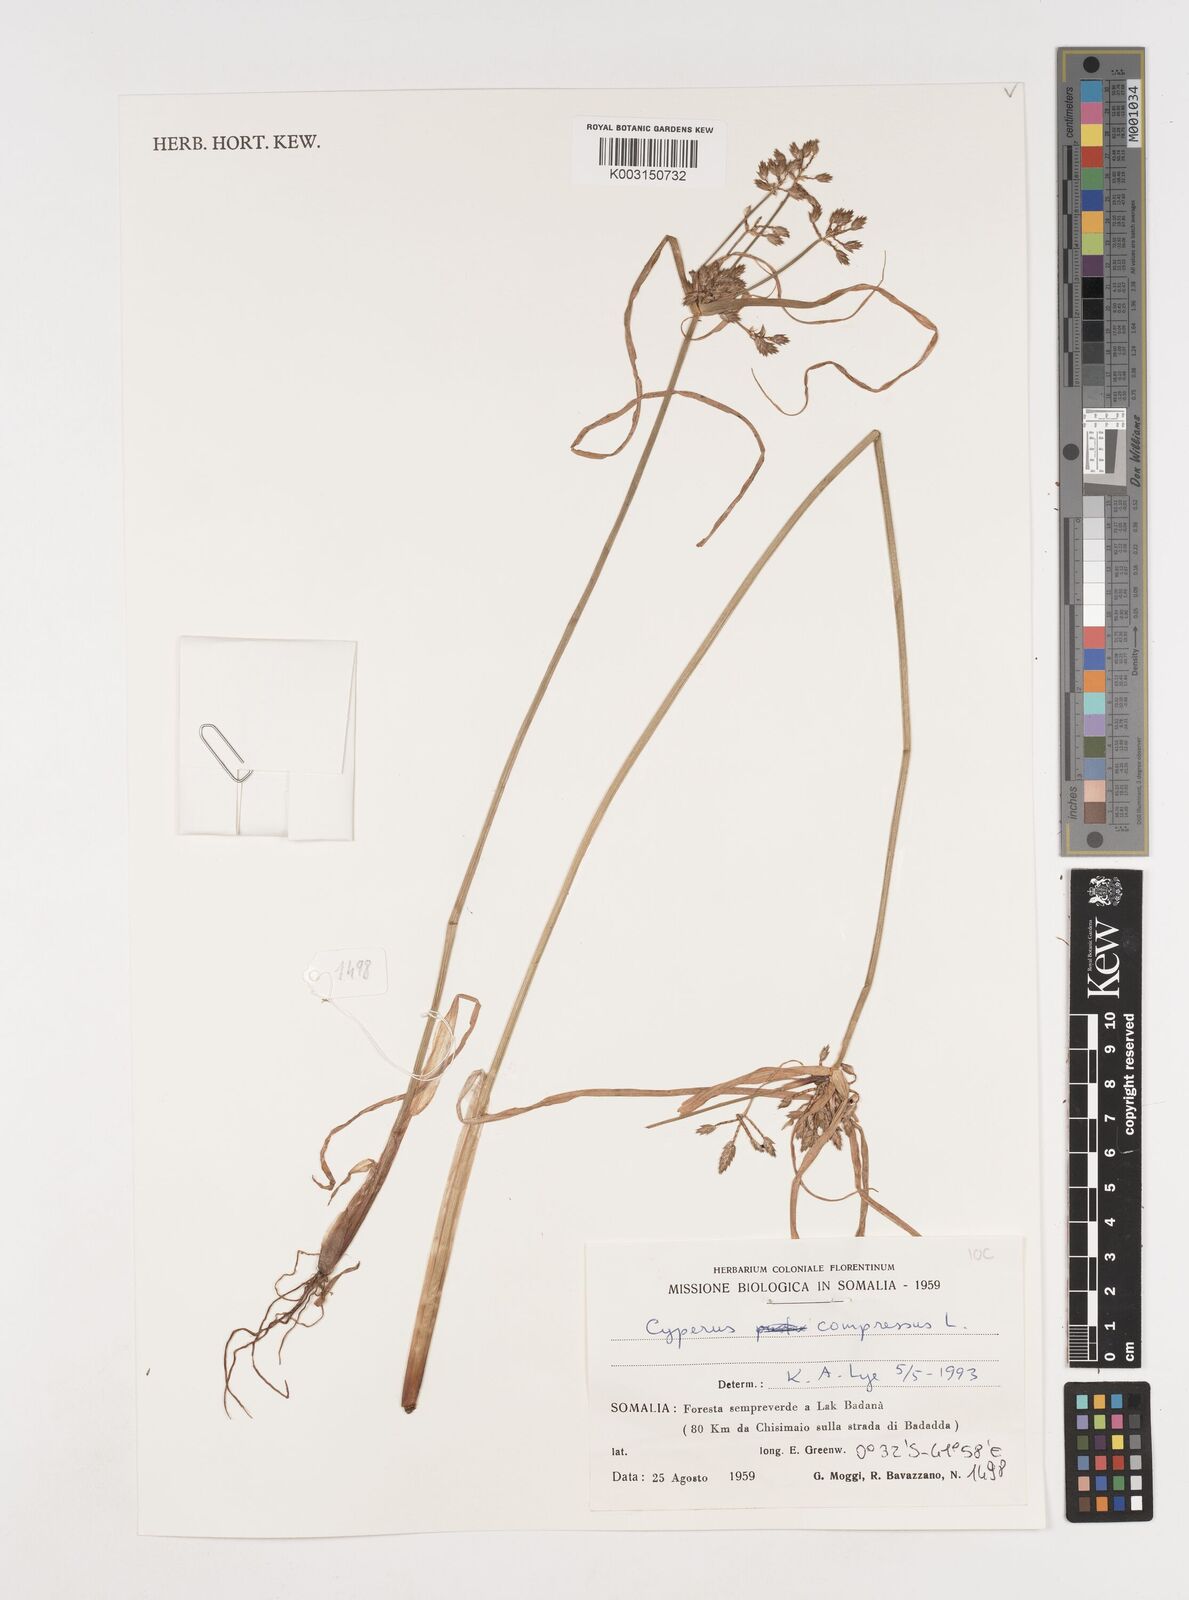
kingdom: Plantae
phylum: Tracheophyta
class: Liliopsida
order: Poales
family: Cyperaceae
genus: Cyperus
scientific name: Cyperus compressus
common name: Poorland flatsedge
